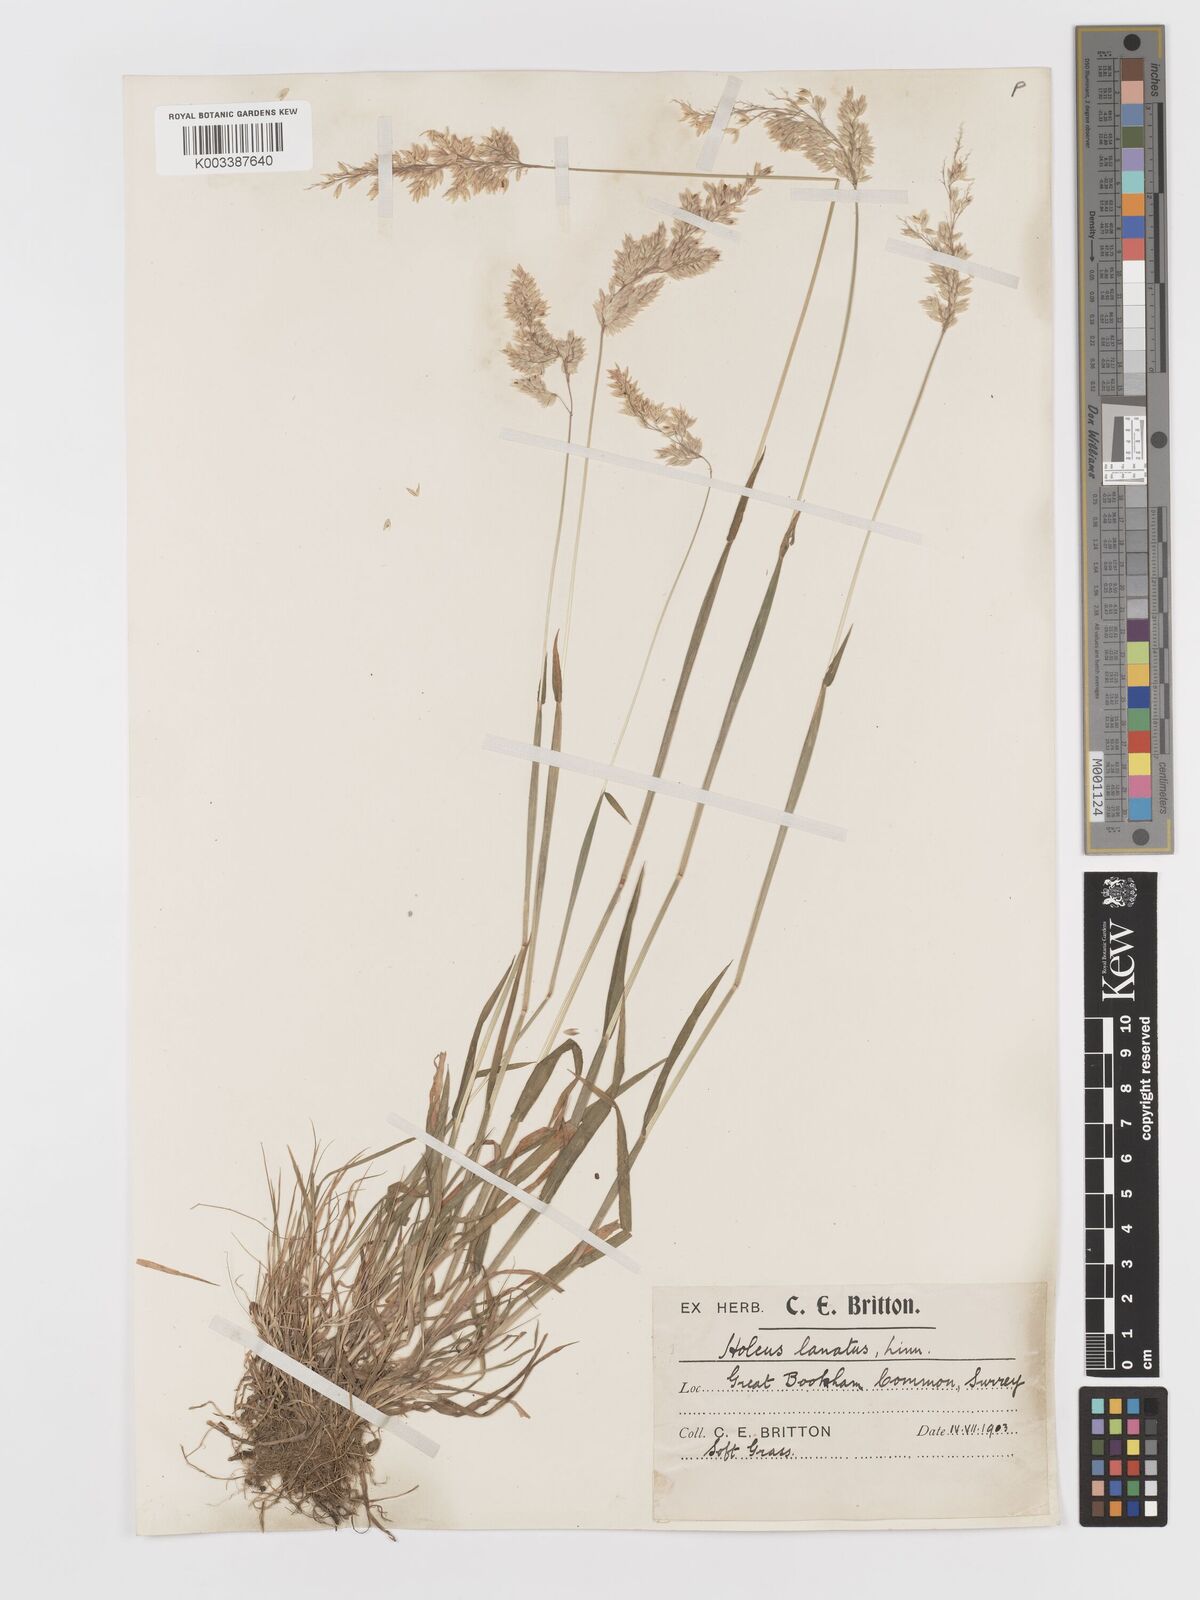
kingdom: Plantae
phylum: Tracheophyta
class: Liliopsida
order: Poales
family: Poaceae
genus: Holcus
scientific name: Holcus lanatus
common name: Yorkshire-fog
